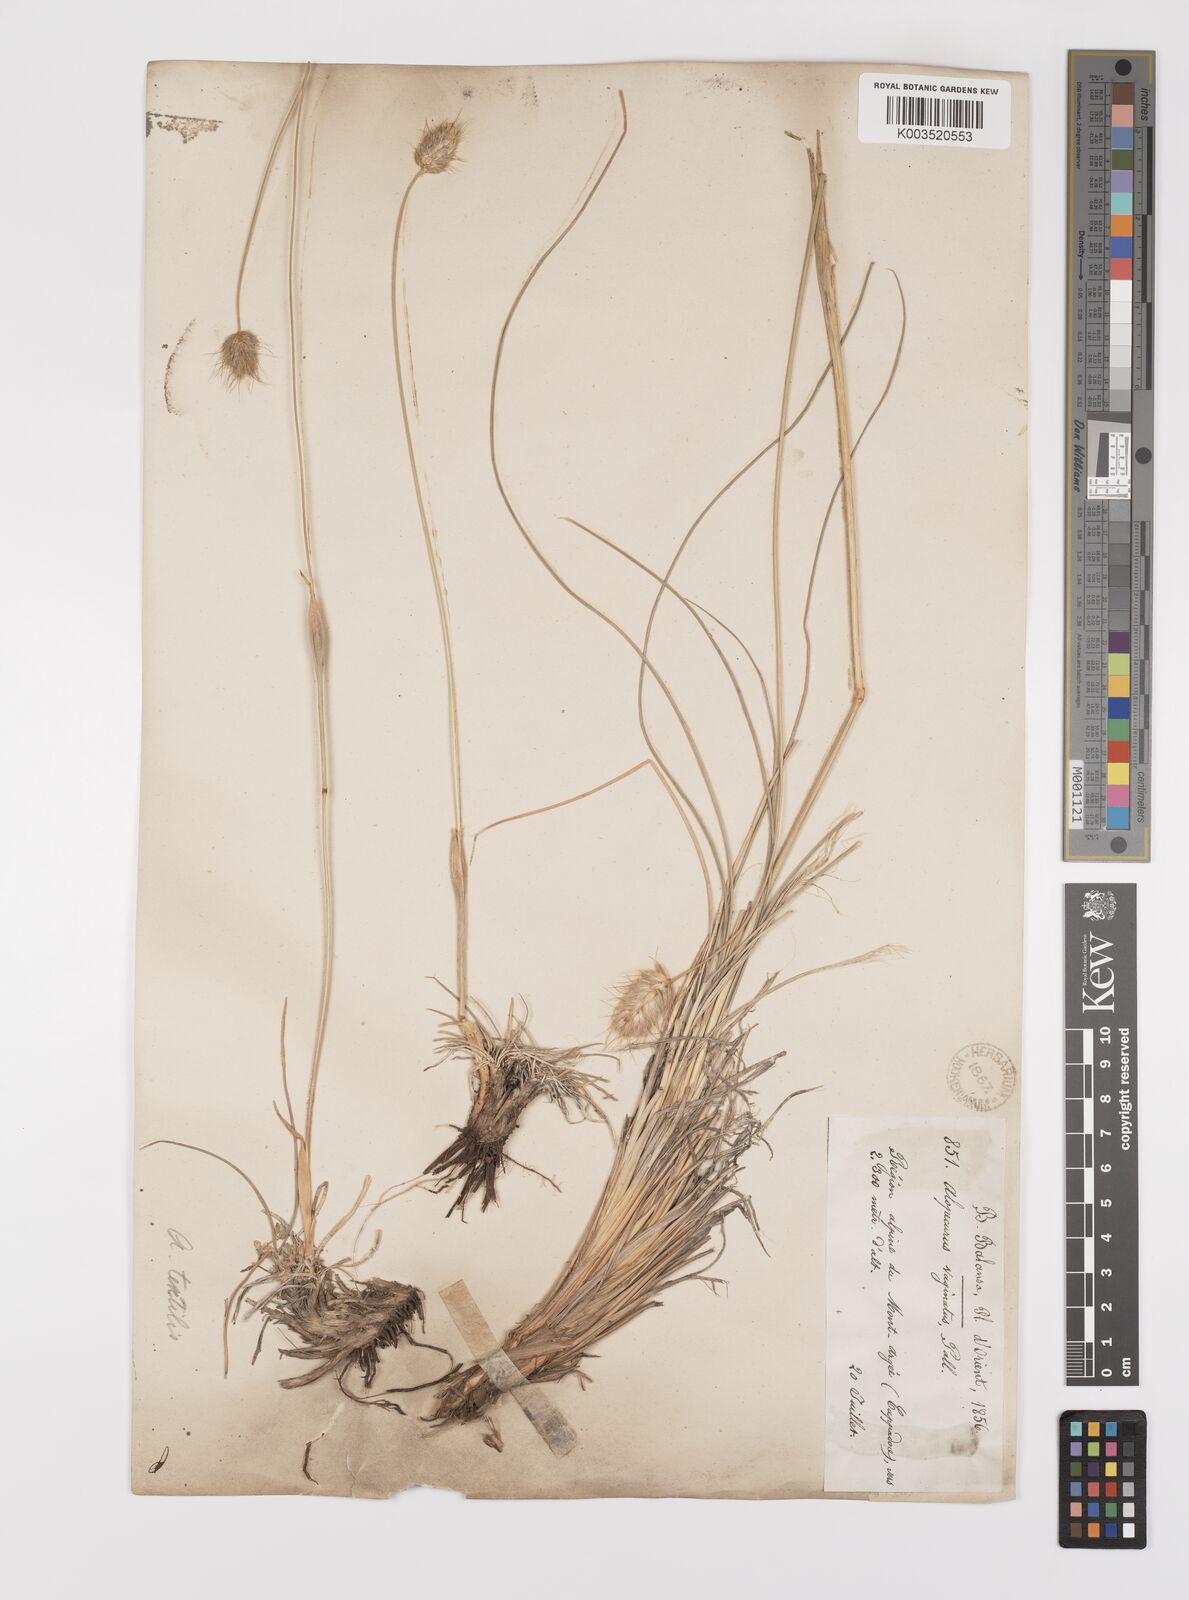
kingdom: Plantae
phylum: Tracheophyta
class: Liliopsida
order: Poales
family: Poaceae
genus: Alopecurus
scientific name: Alopecurus textilis
